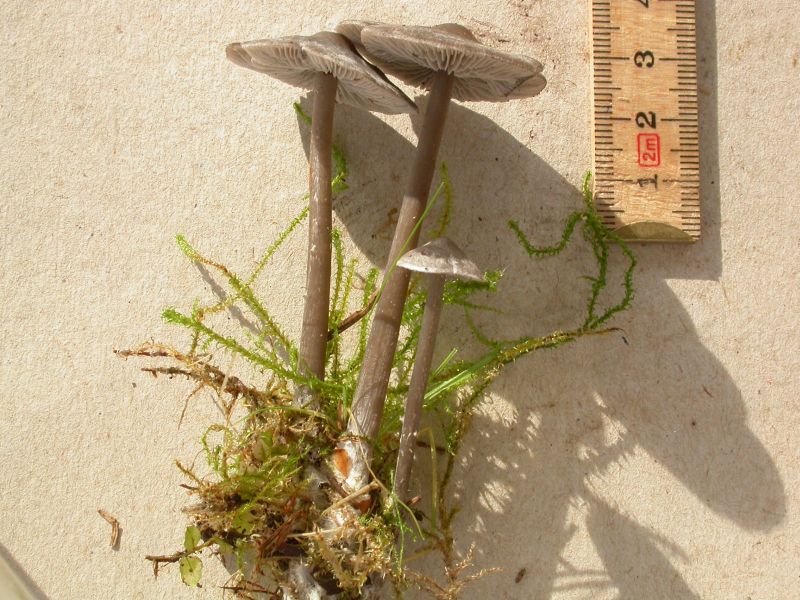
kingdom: Fungi
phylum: Basidiomycota
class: Agaricomycetes
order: Agaricales
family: Lyophyllaceae
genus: Tephrocybe
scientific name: Tephrocybe rancida
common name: mel-gråblad
